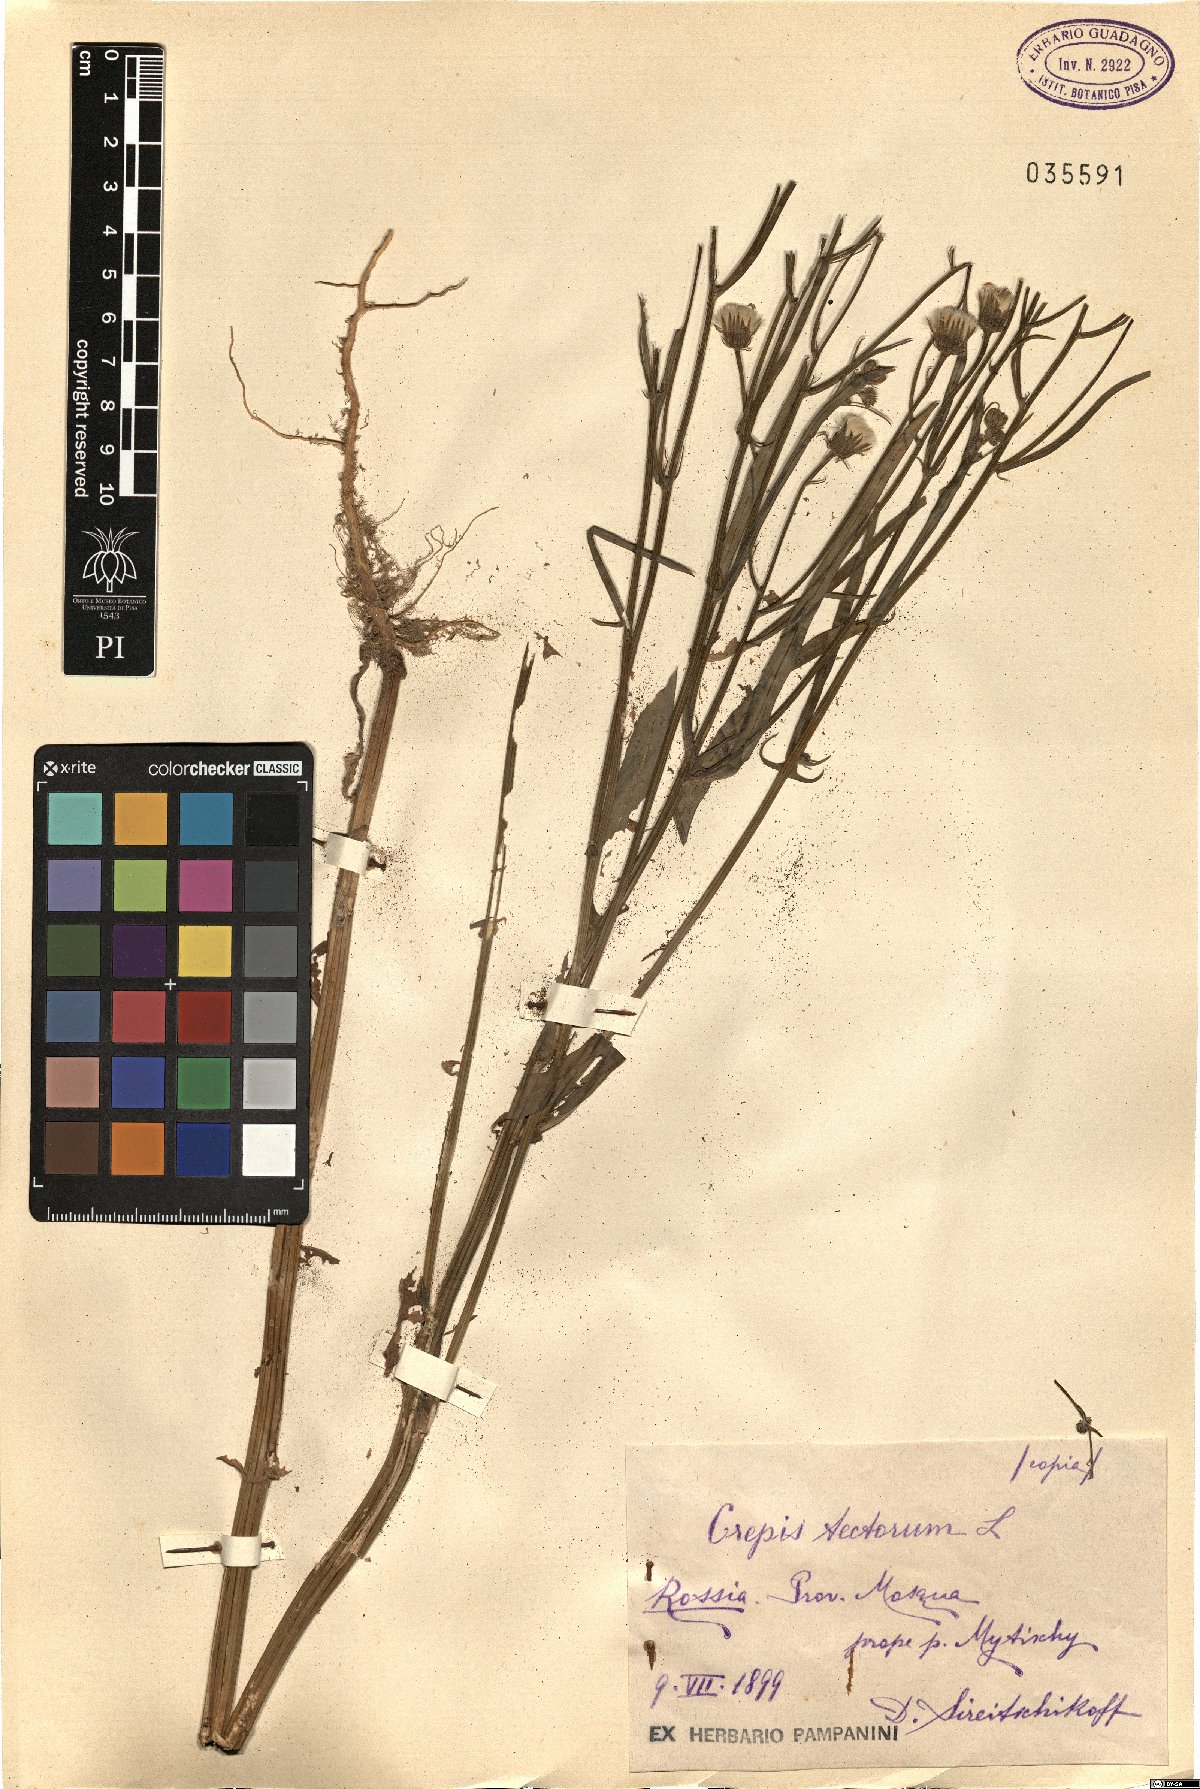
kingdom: Plantae
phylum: Tracheophyta
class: Magnoliopsida
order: Asterales
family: Asteraceae
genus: Crepis
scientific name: Crepis tectorum
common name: Narrow-leaved hawk's-beard
